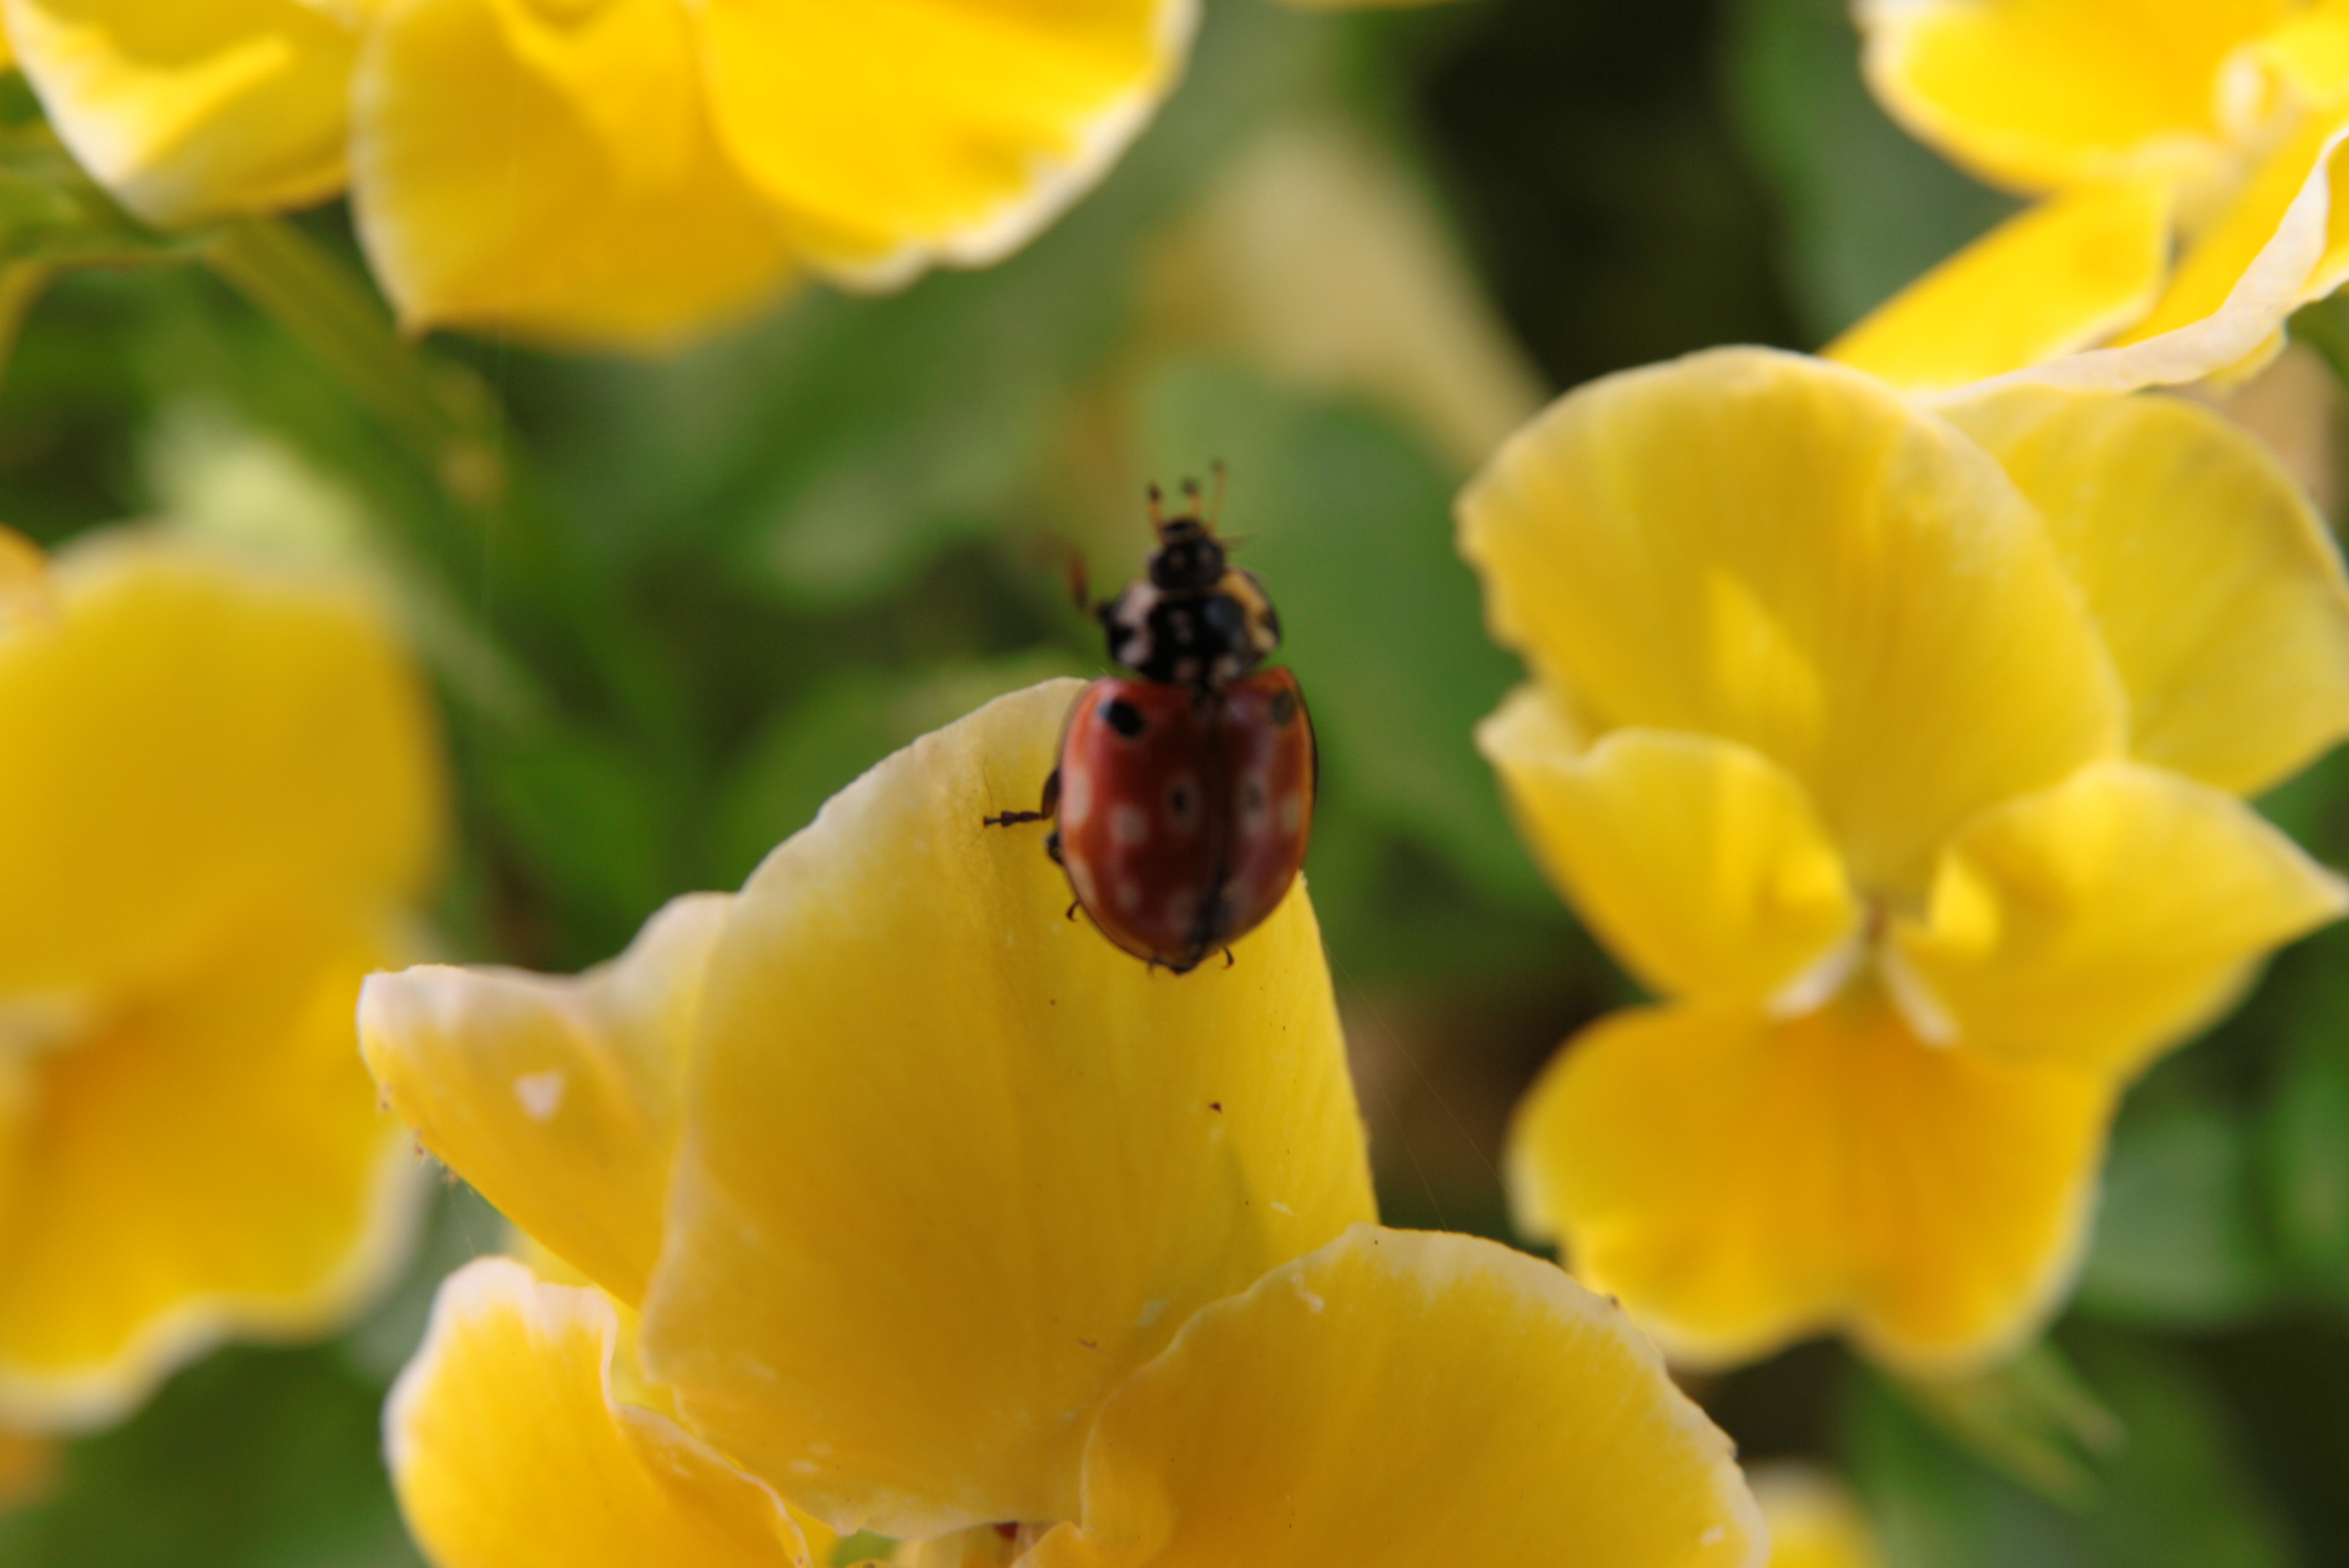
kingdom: Animalia
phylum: Arthropoda
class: Insecta
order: Coleoptera
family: Coccinellidae
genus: Anatis
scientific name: Anatis ocellata
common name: Eyed ladybird
